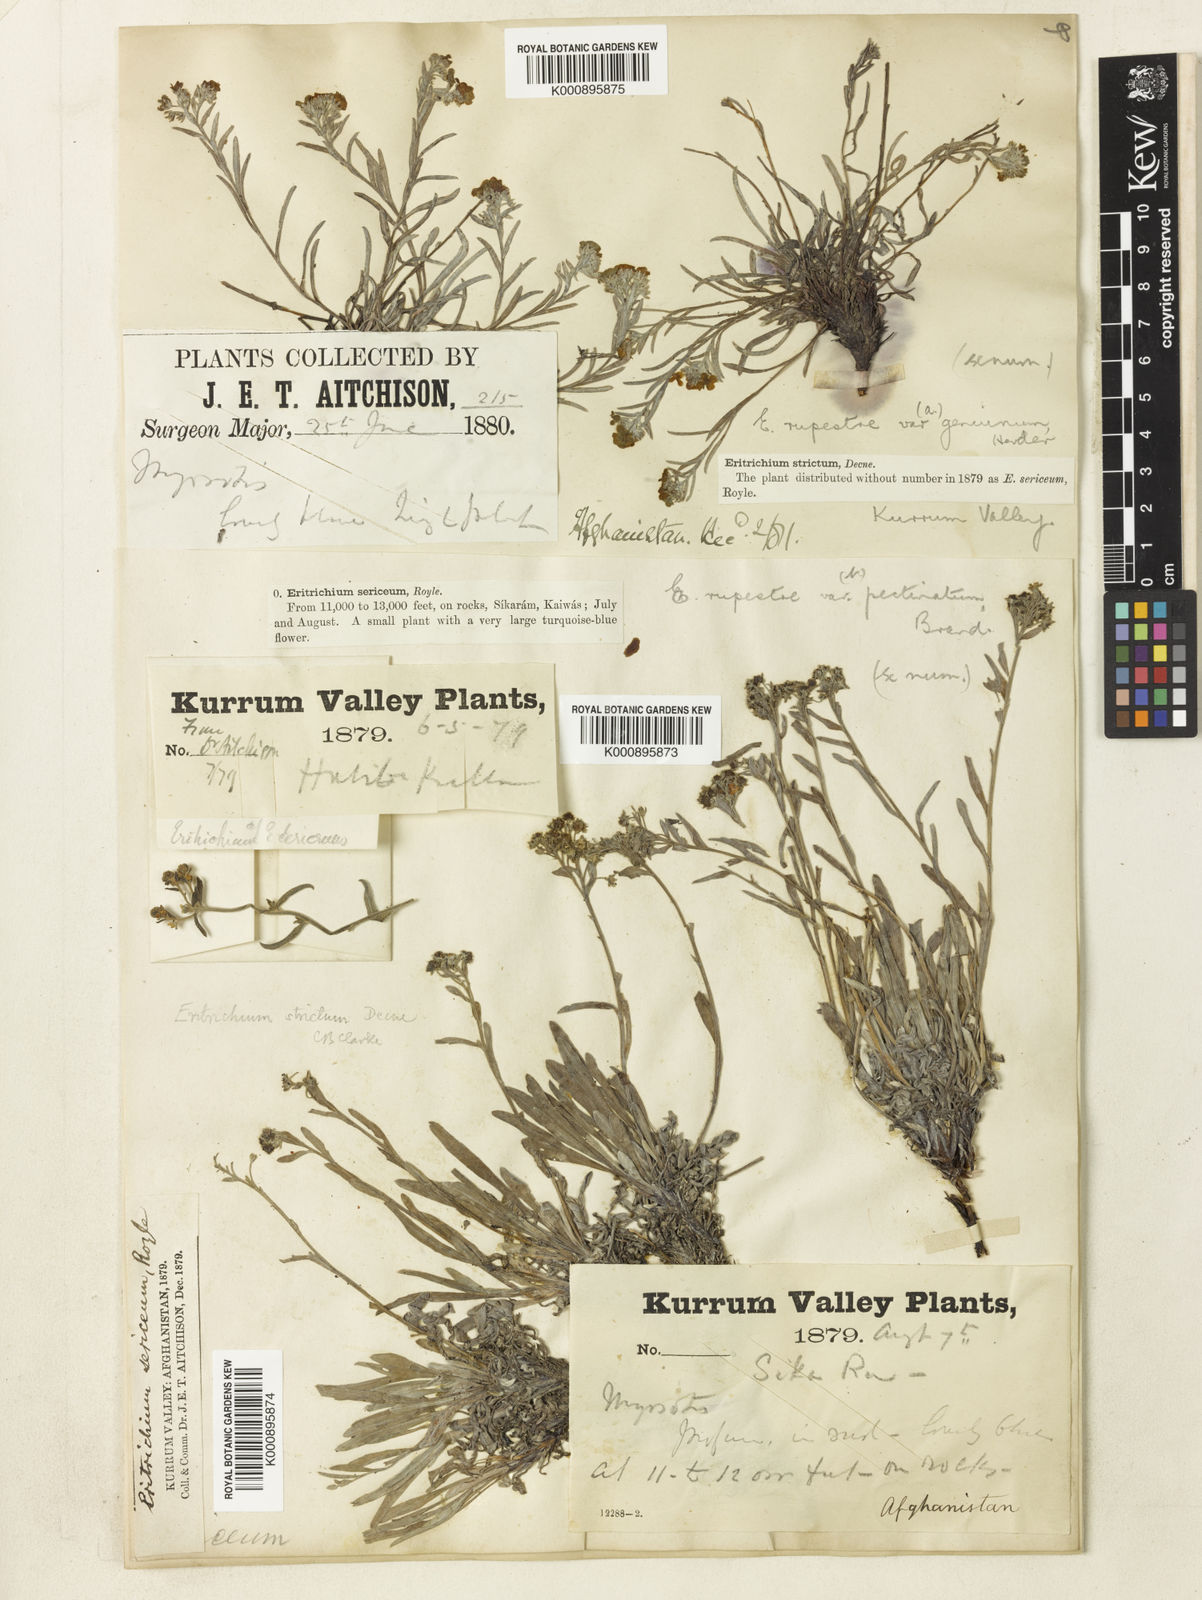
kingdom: Plantae
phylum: Tracheophyta
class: Magnoliopsida
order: Boraginales
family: Boraginaceae
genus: Eritrichium
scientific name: Eritrichium canum
